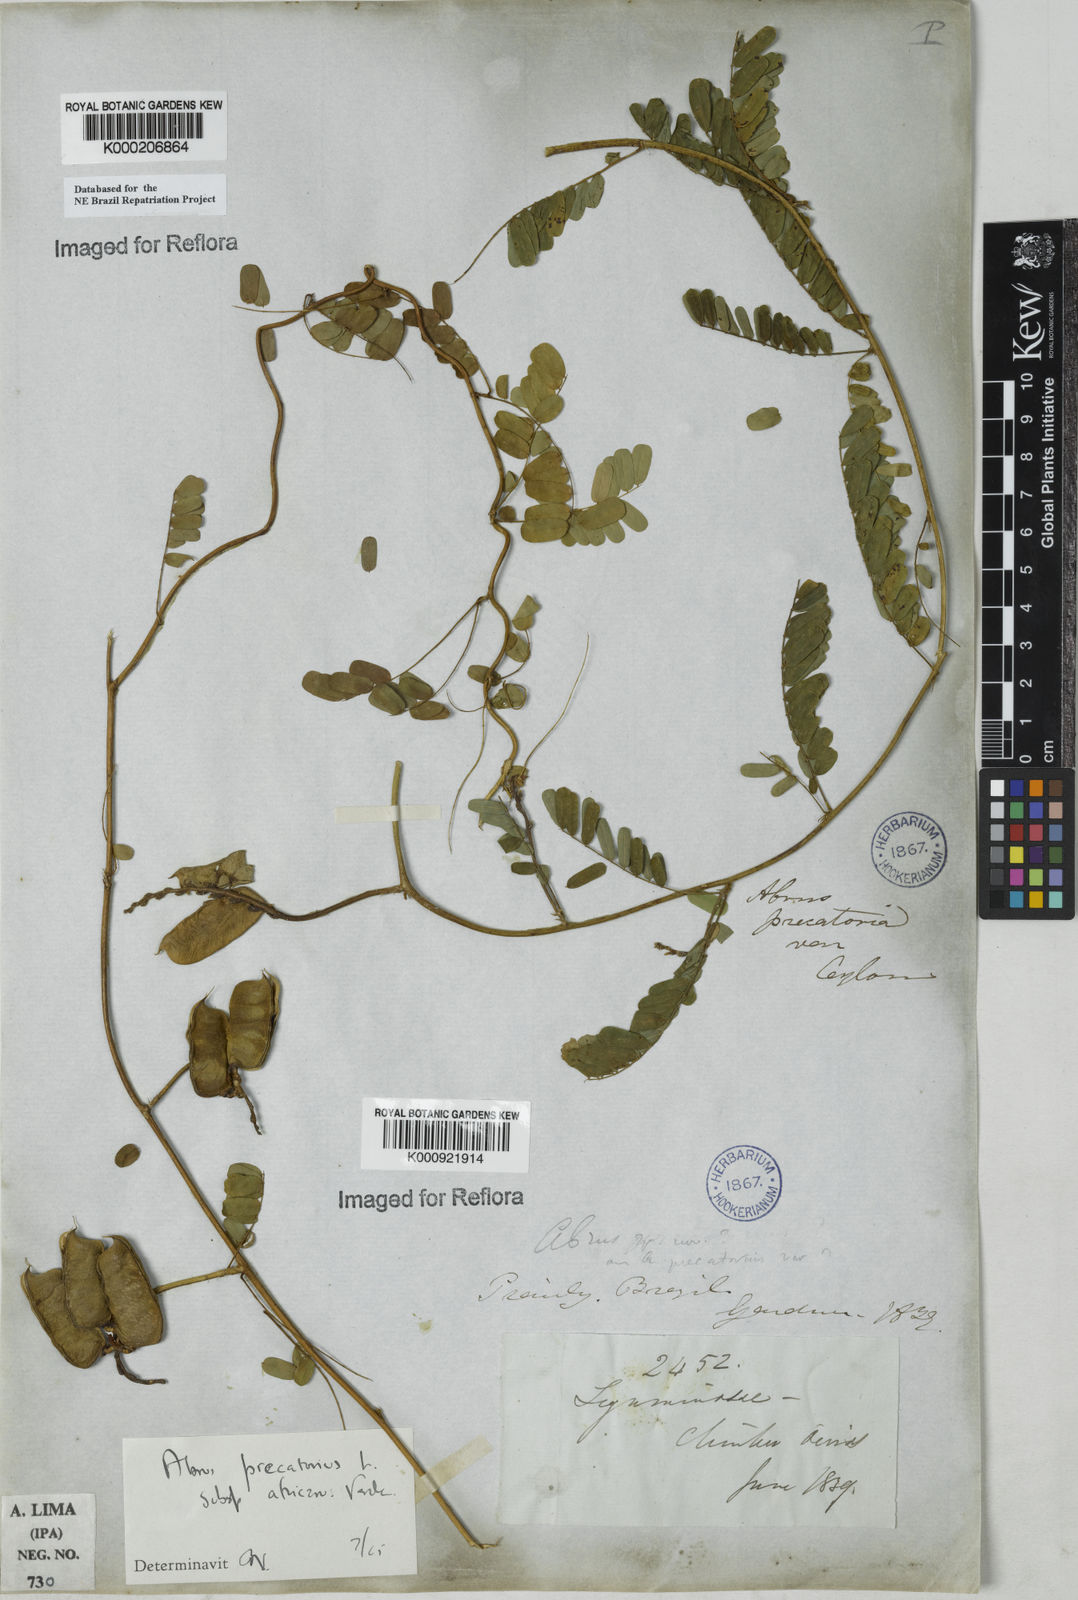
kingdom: Plantae
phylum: Tracheophyta
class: Magnoliopsida
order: Fabales
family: Fabaceae
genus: Abrus
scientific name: Abrus precatorius
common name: Rosarypea
